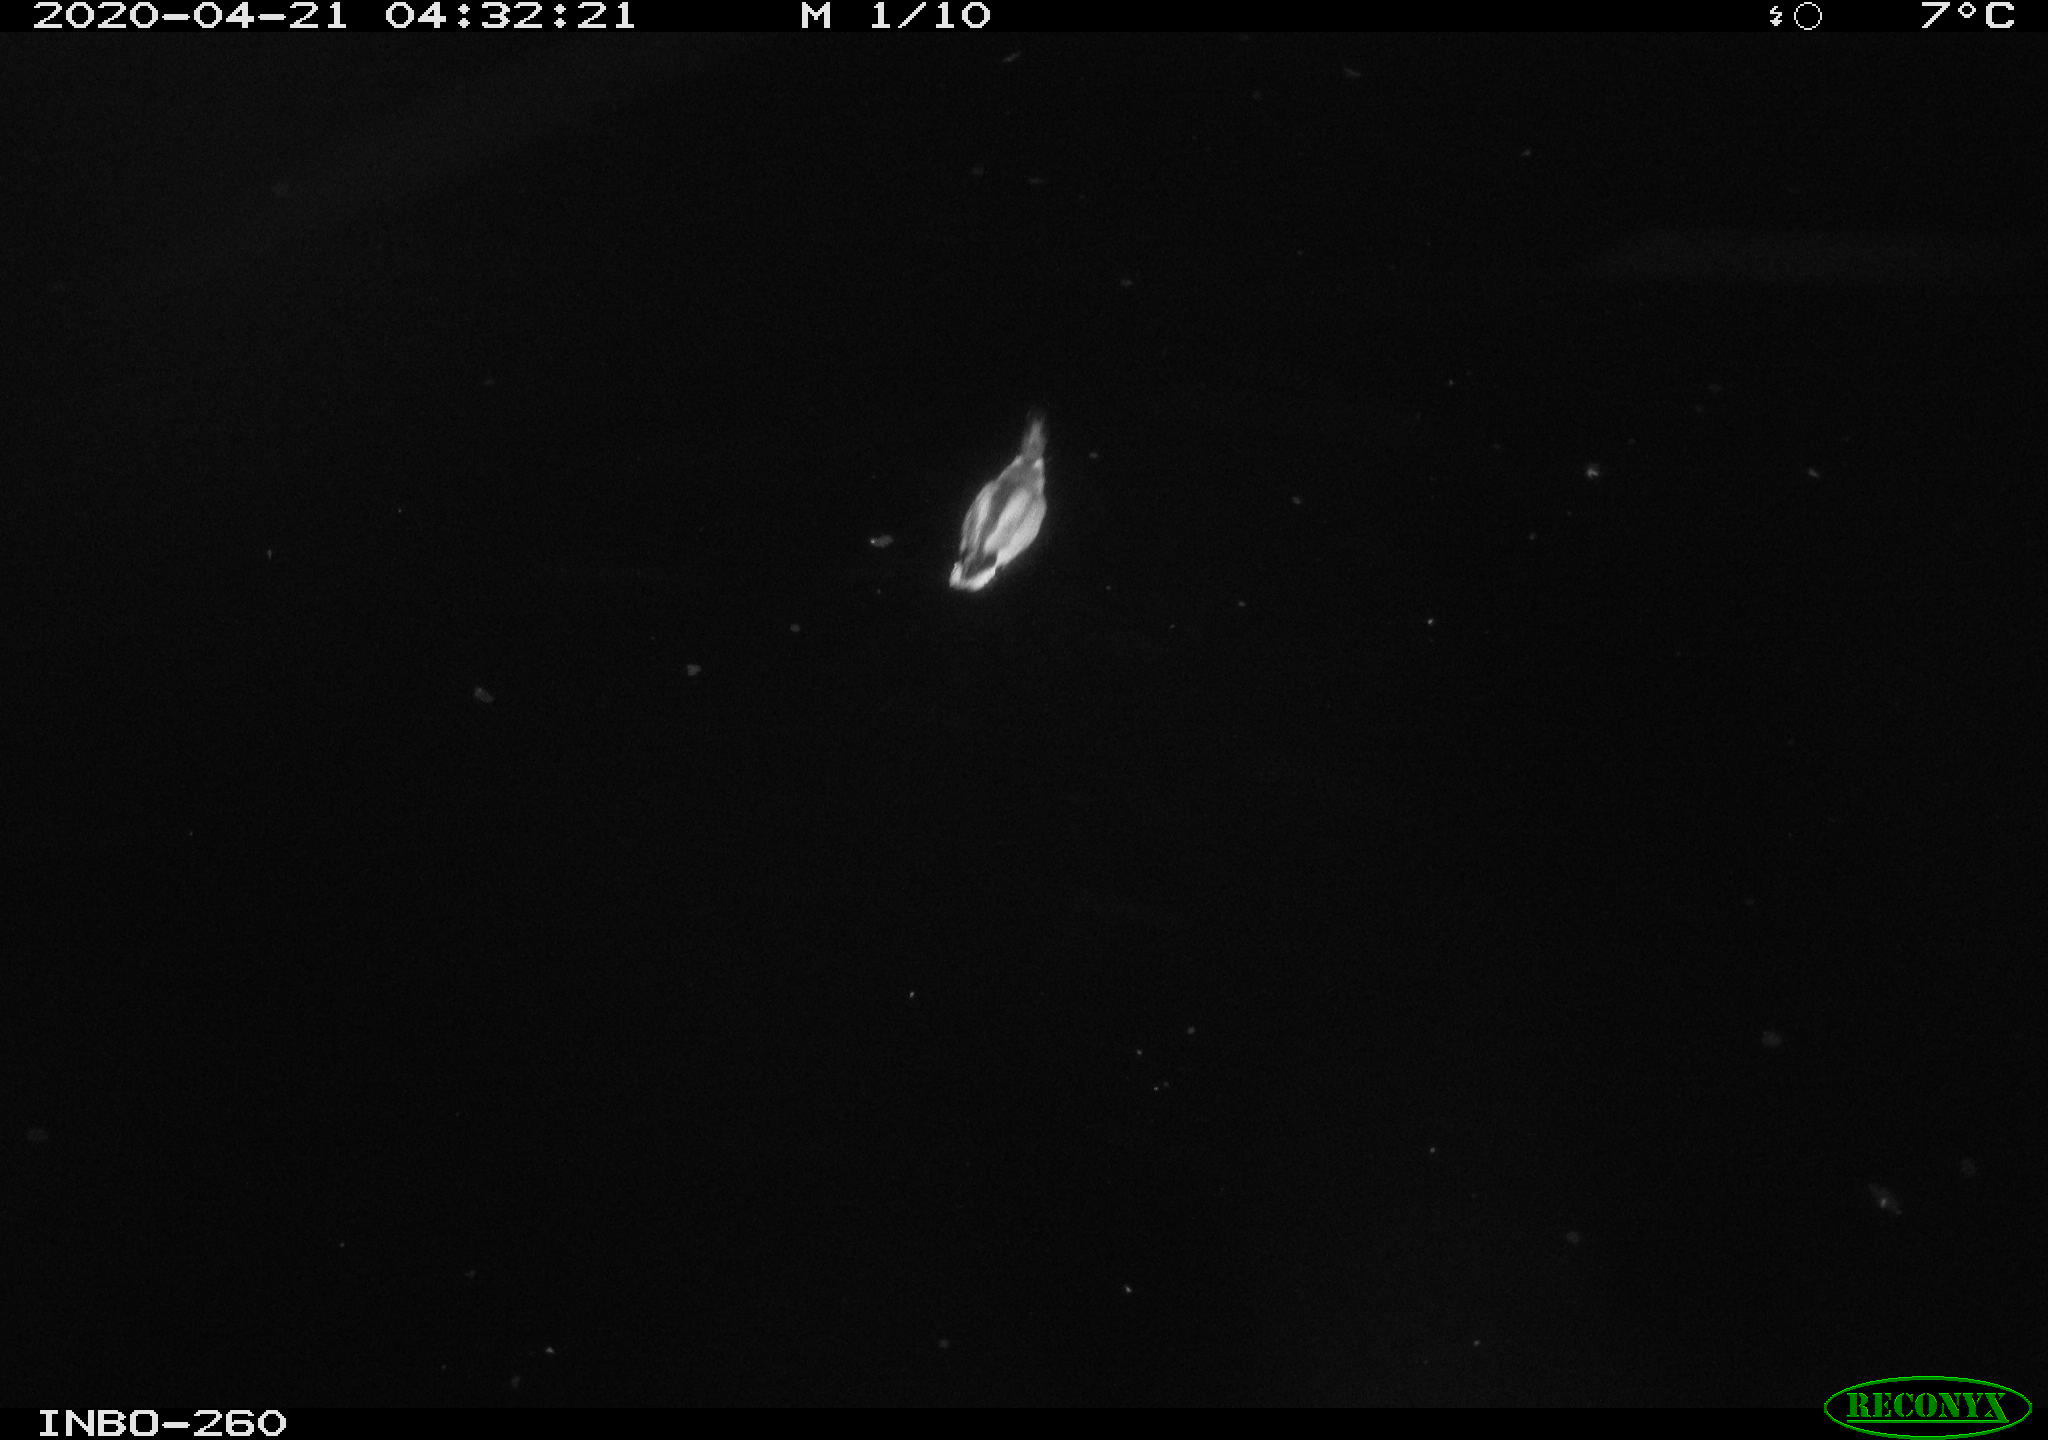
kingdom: Animalia
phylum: Chordata
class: Aves
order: Anseriformes
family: Anatidae
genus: Anas
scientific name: Anas platyrhynchos
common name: Mallard
